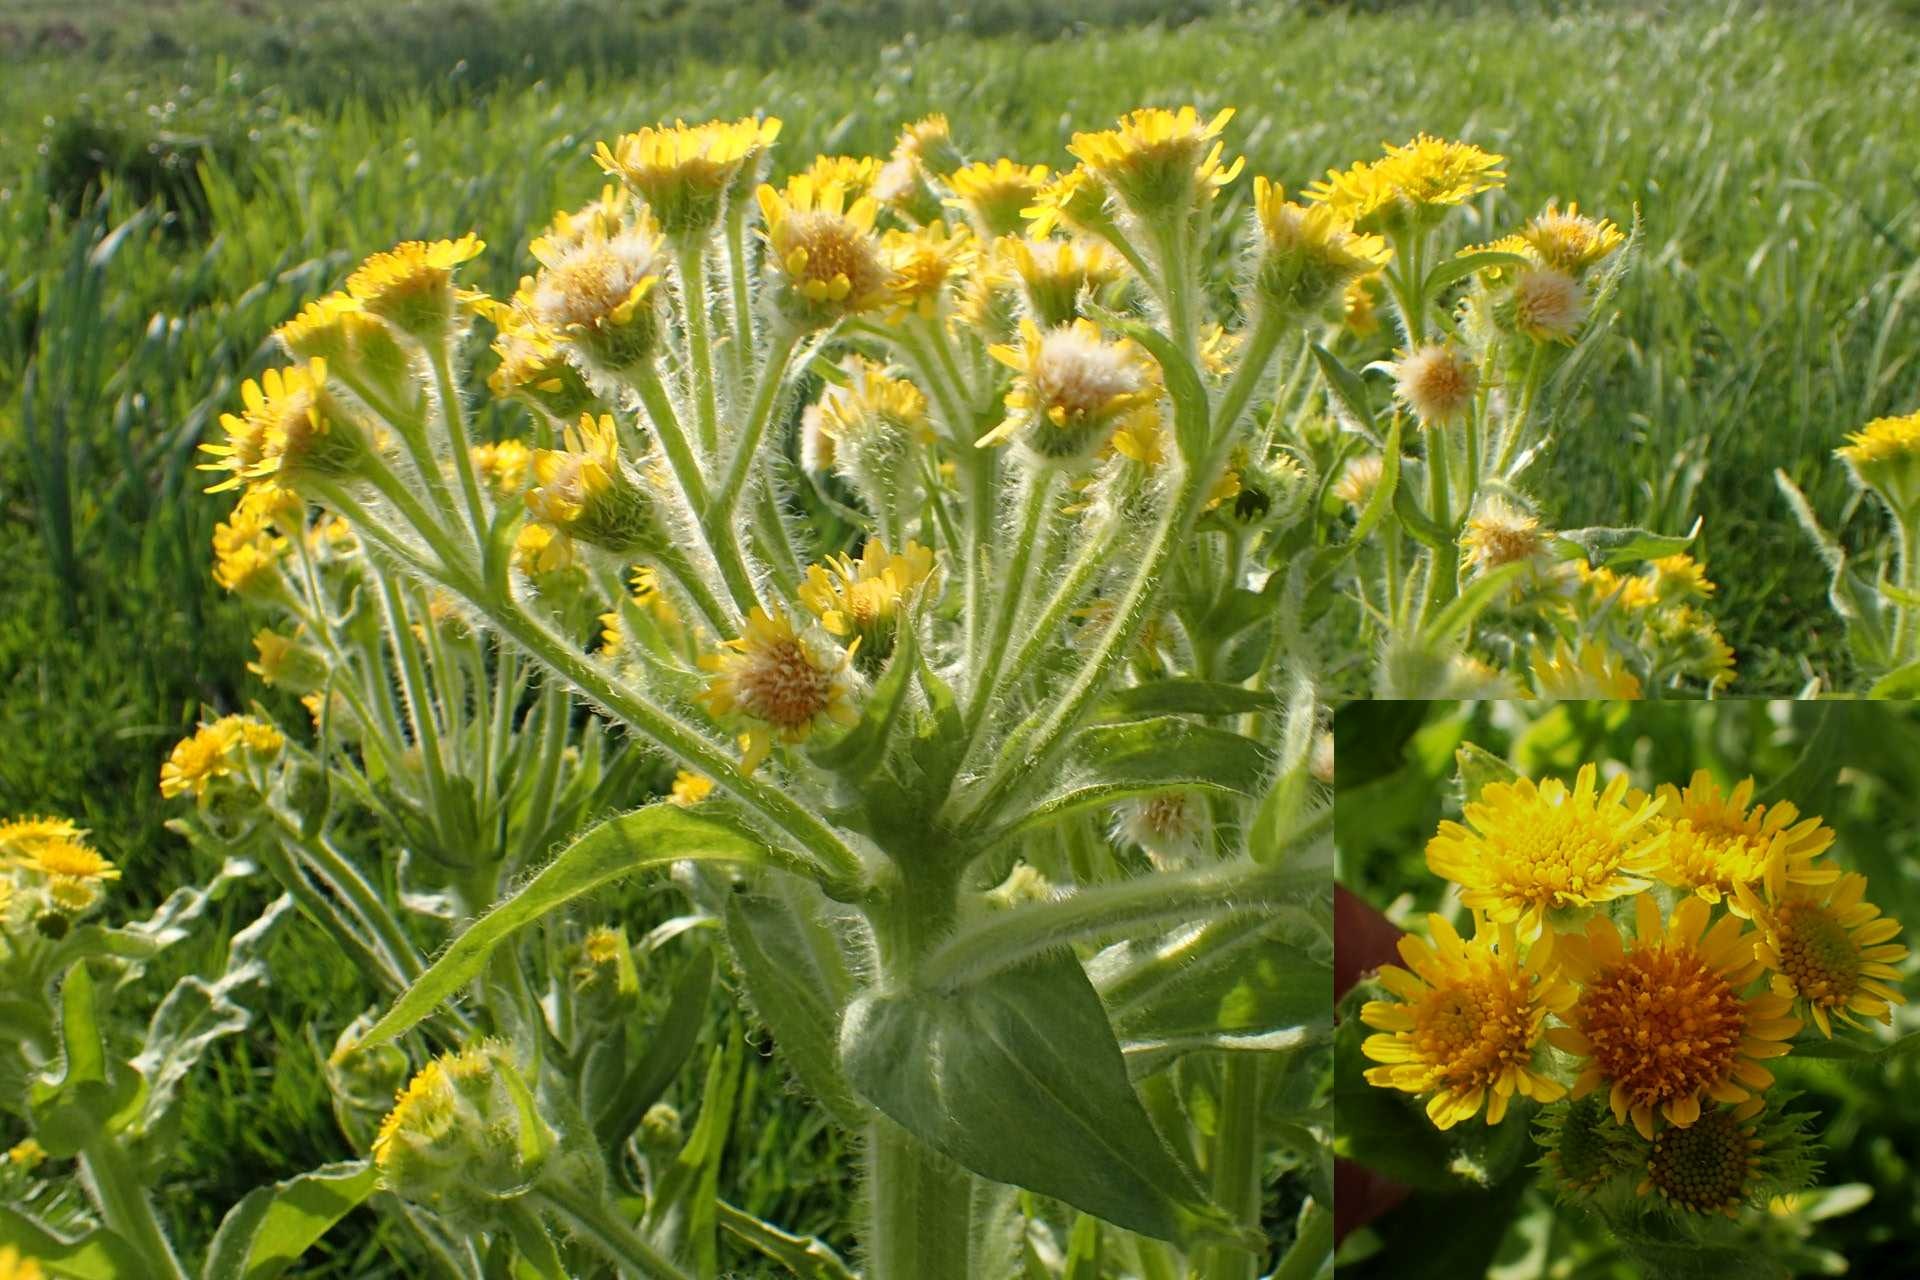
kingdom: Plantae
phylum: Tracheophyta
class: Magnoliopsida
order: Asterales
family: Asteraceae
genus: Tephroseris
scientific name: Tephroseris palustris
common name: Kær-fnokurt
